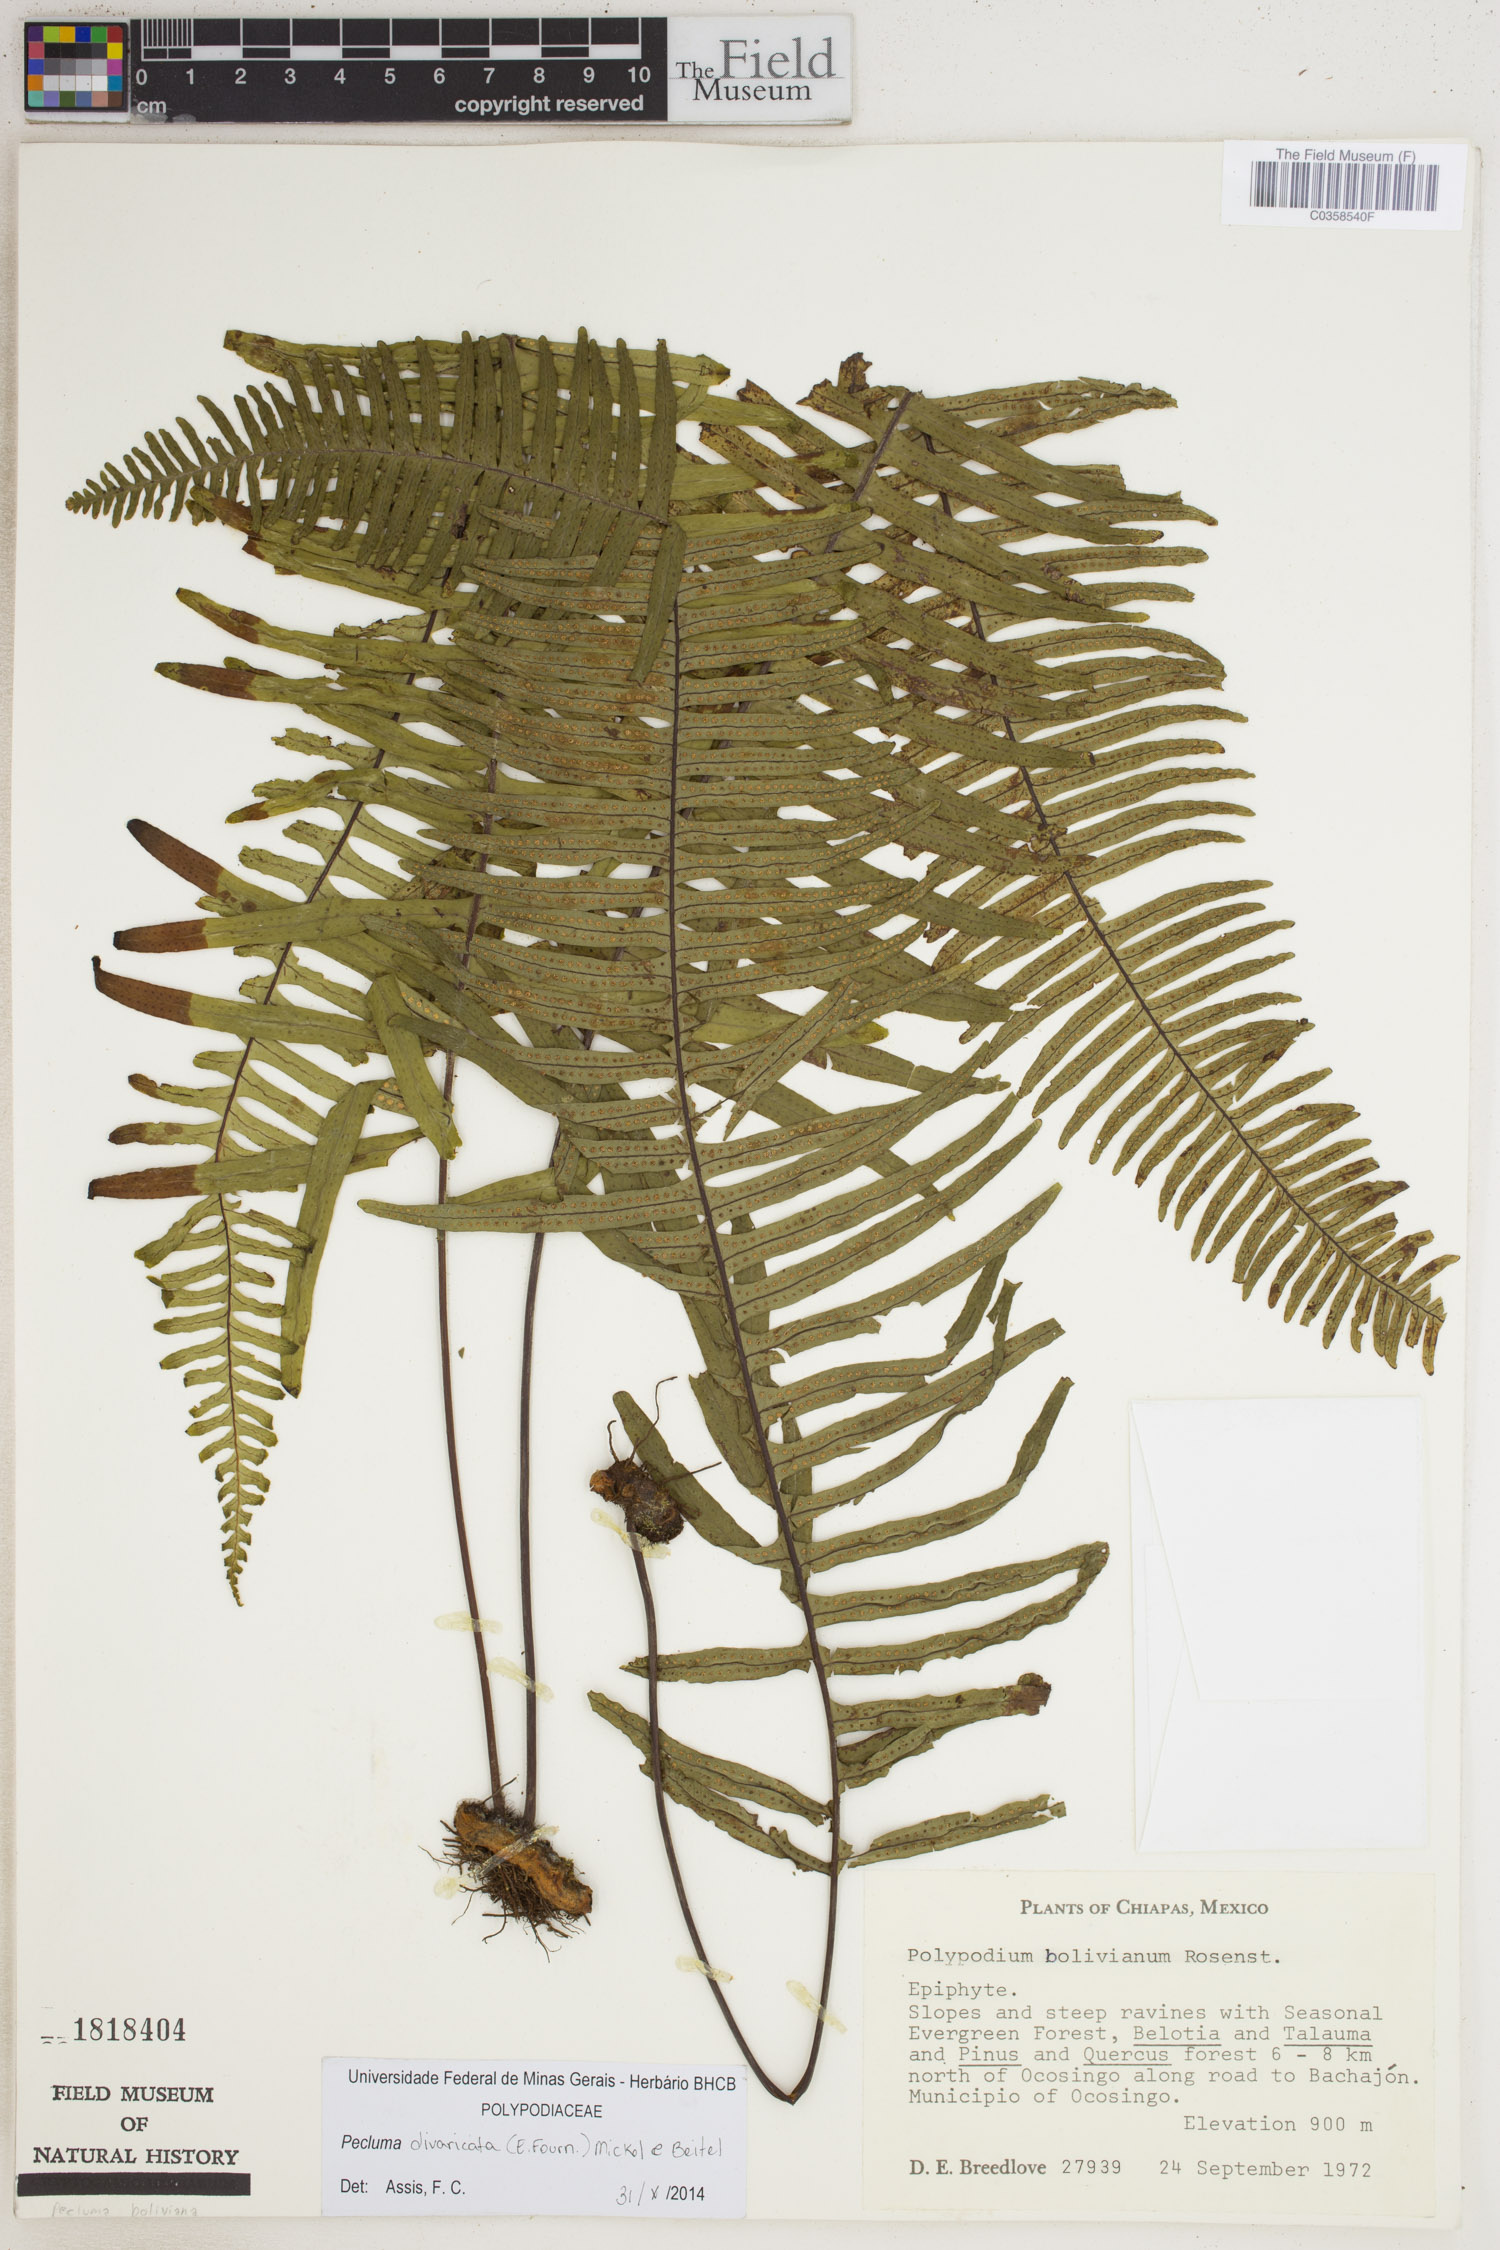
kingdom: Plantae
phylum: Tracheophyta
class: Polypodiopsida
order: Polypodiales
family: Polypodiaceae
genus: Pecluma
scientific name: Pecluma divaricata
